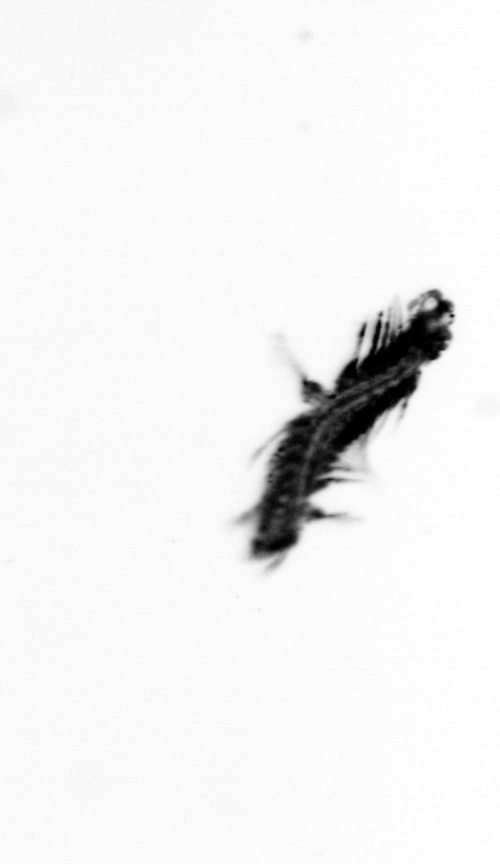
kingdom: Animalia
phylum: Annelida
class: Polychaeta
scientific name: Polychaeta
